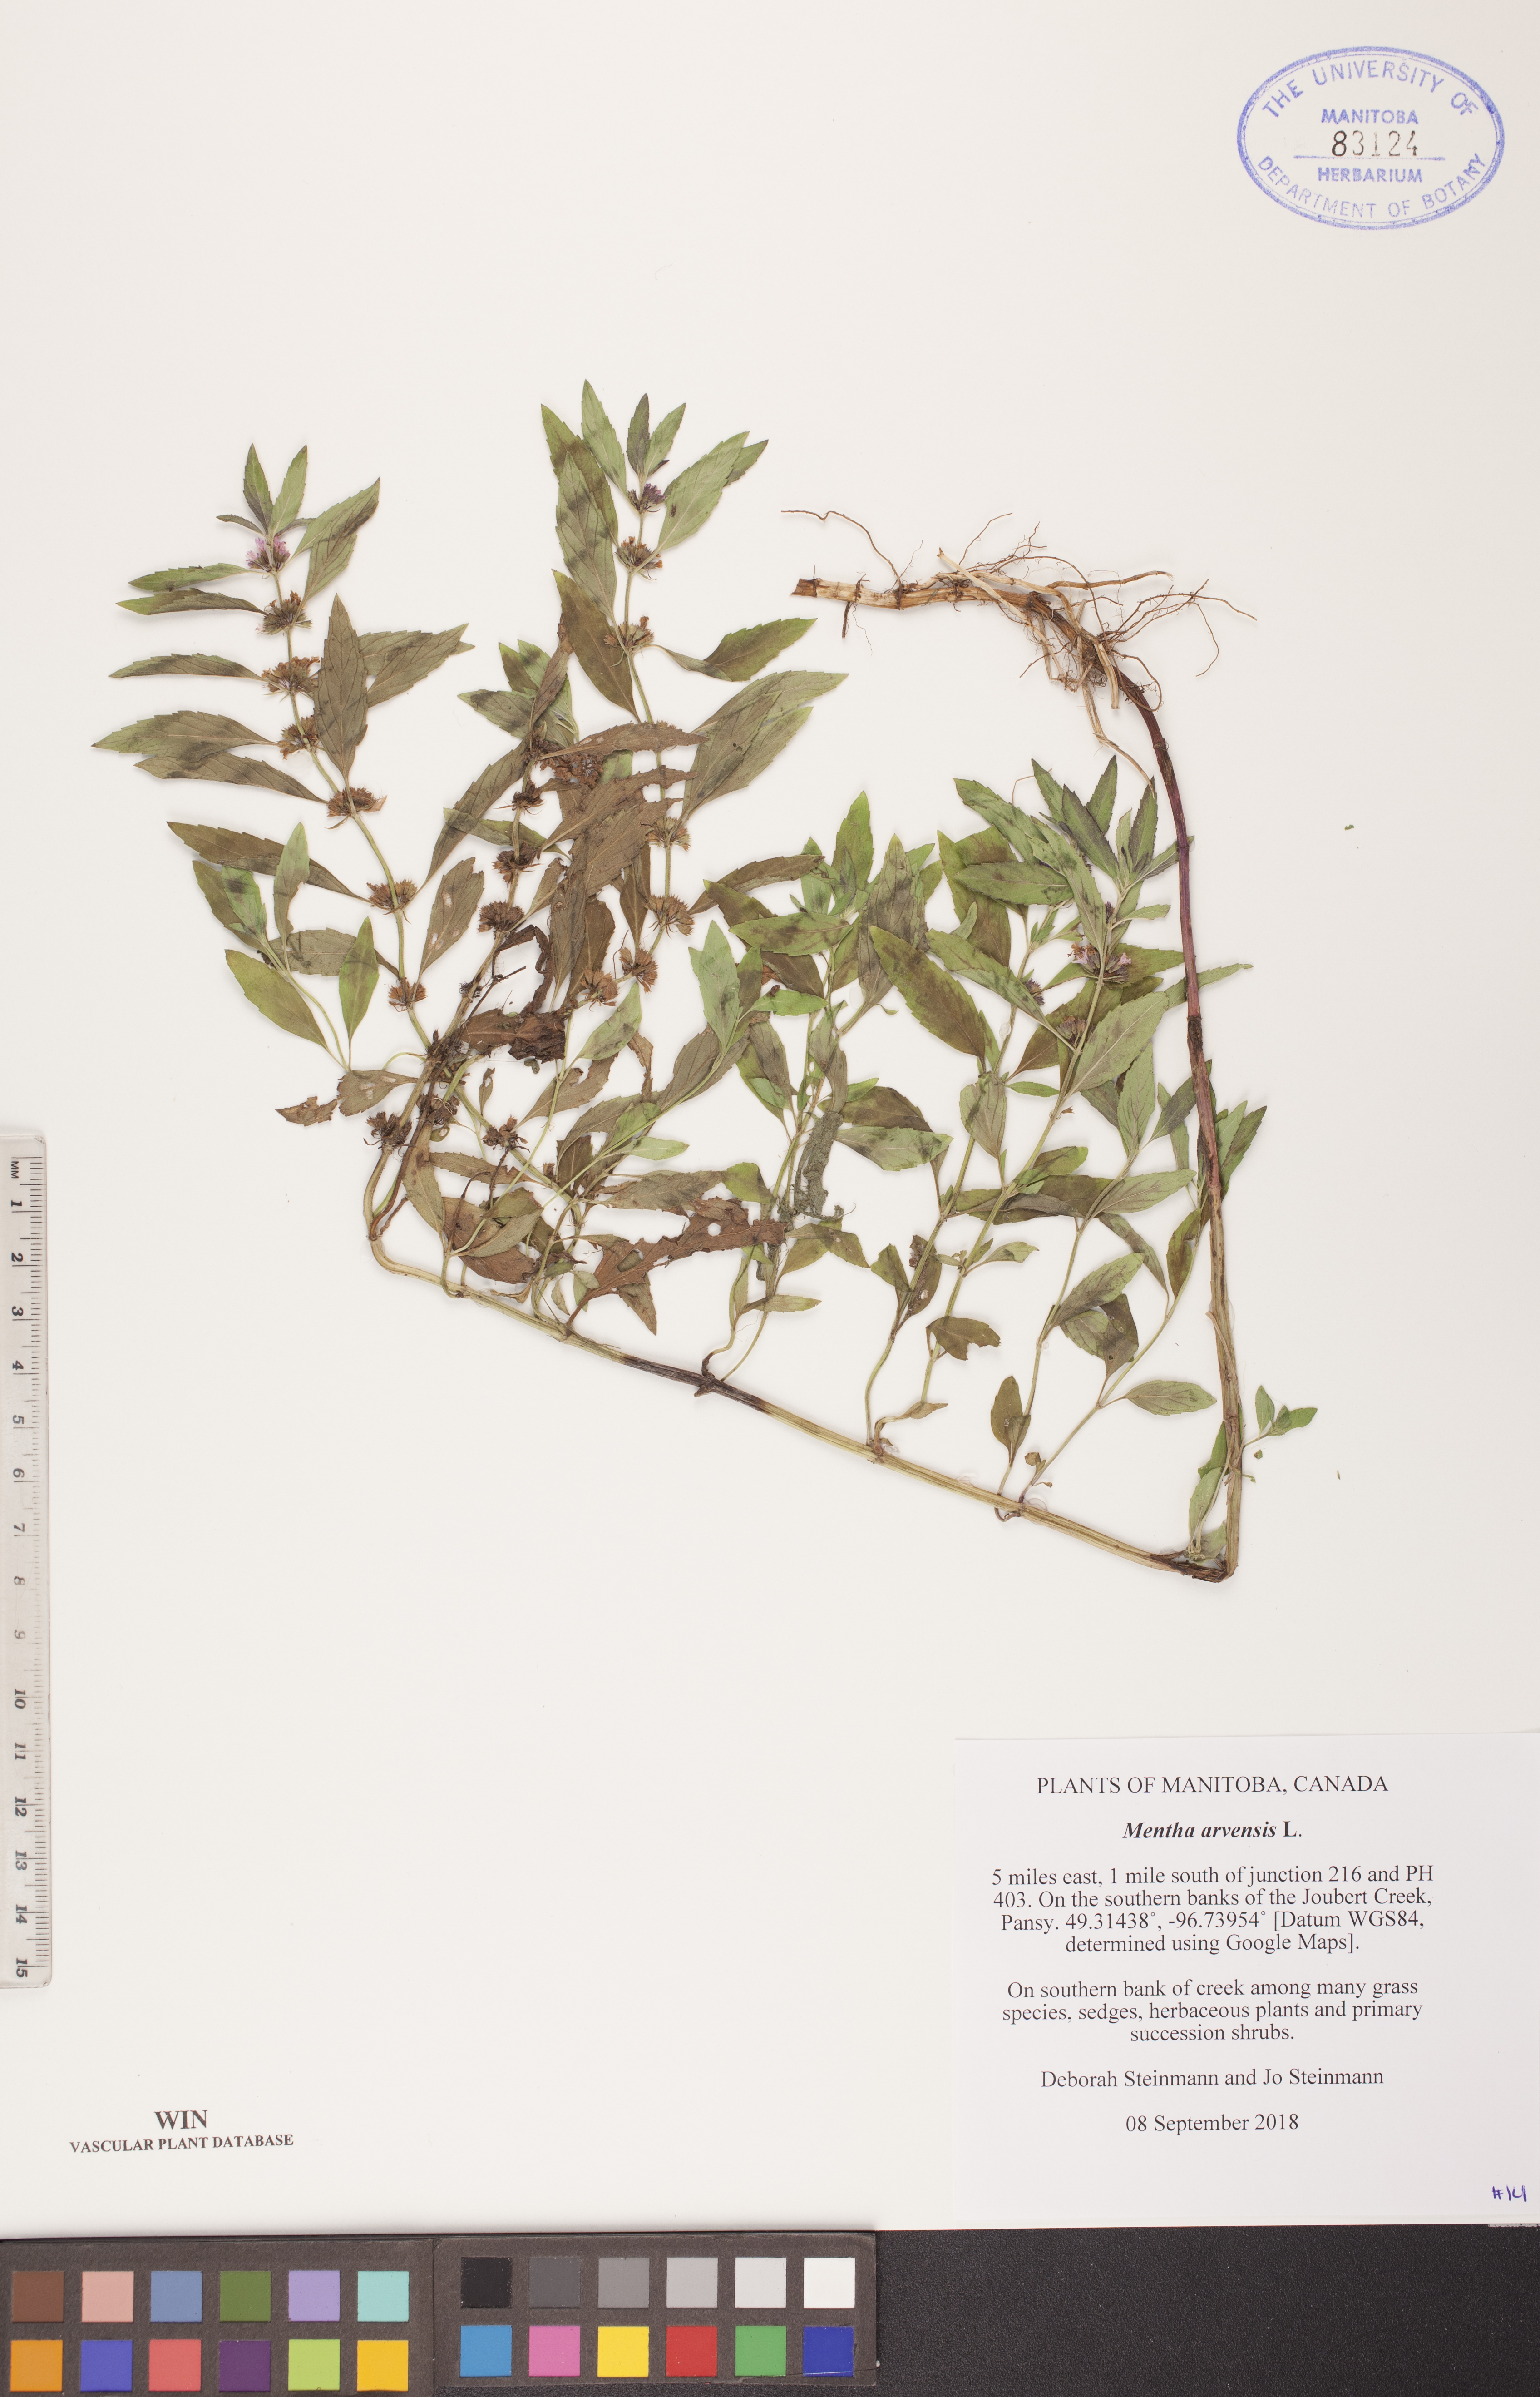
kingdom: Plantae
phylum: Tracheophyta
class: Magnoliopsida
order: Lamiales
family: Lamiaceae
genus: Mentha
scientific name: Mentha arvensis
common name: Corn mint
